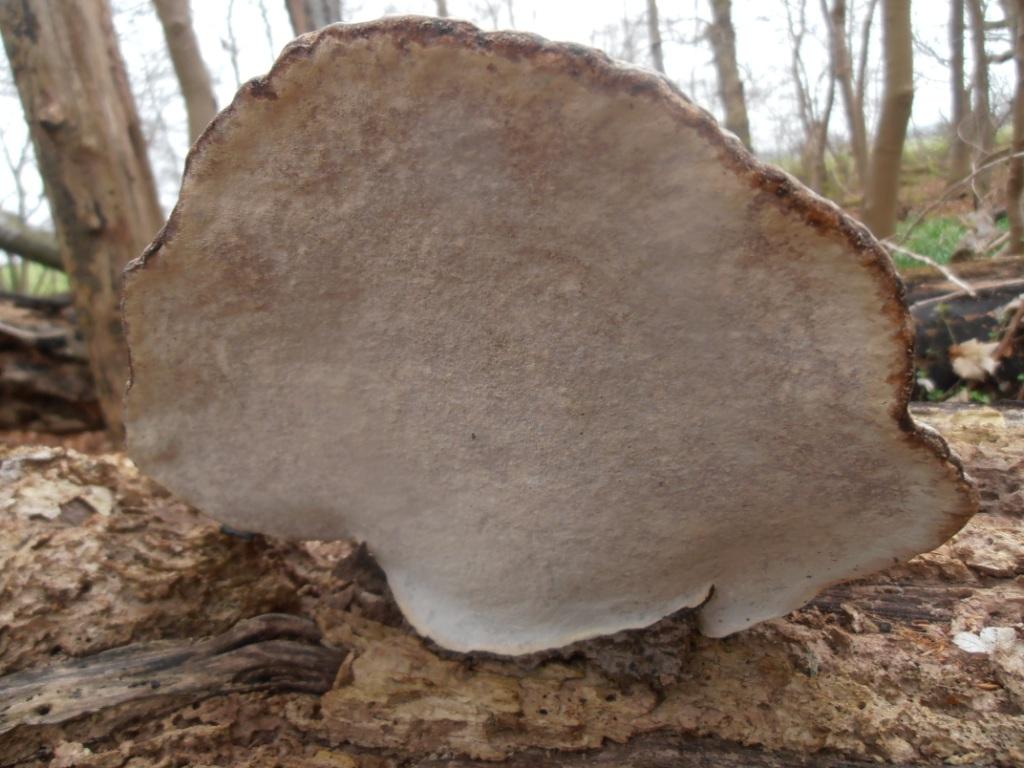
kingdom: Fungi
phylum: Basidiomycota
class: Agaricomycetes
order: Polyporales
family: Polyporaceae
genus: Fomes
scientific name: Fomes fomentarius
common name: tøndersvamp
